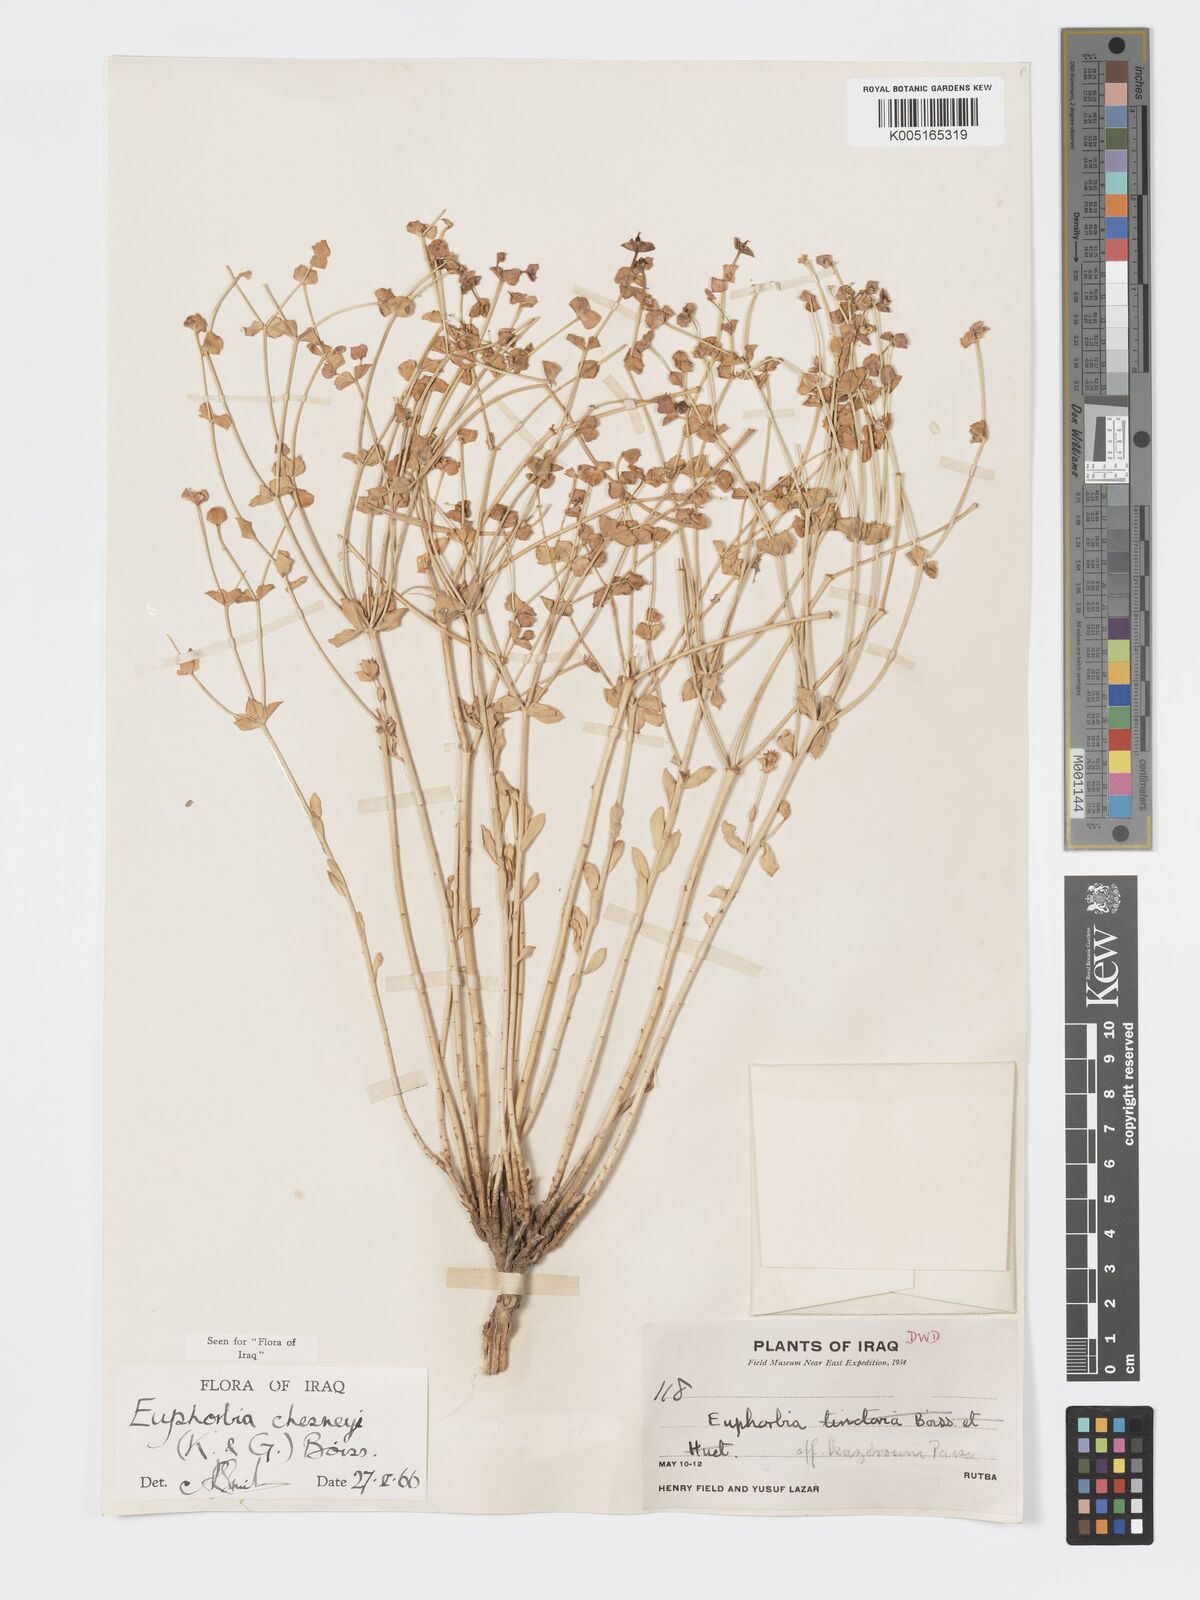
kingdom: Plantae
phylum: Tracheophyta
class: Magnoliopsida
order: Malpighiales
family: Euphorbiaceae
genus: Euphorbia
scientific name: Euphorbia cuspidata
